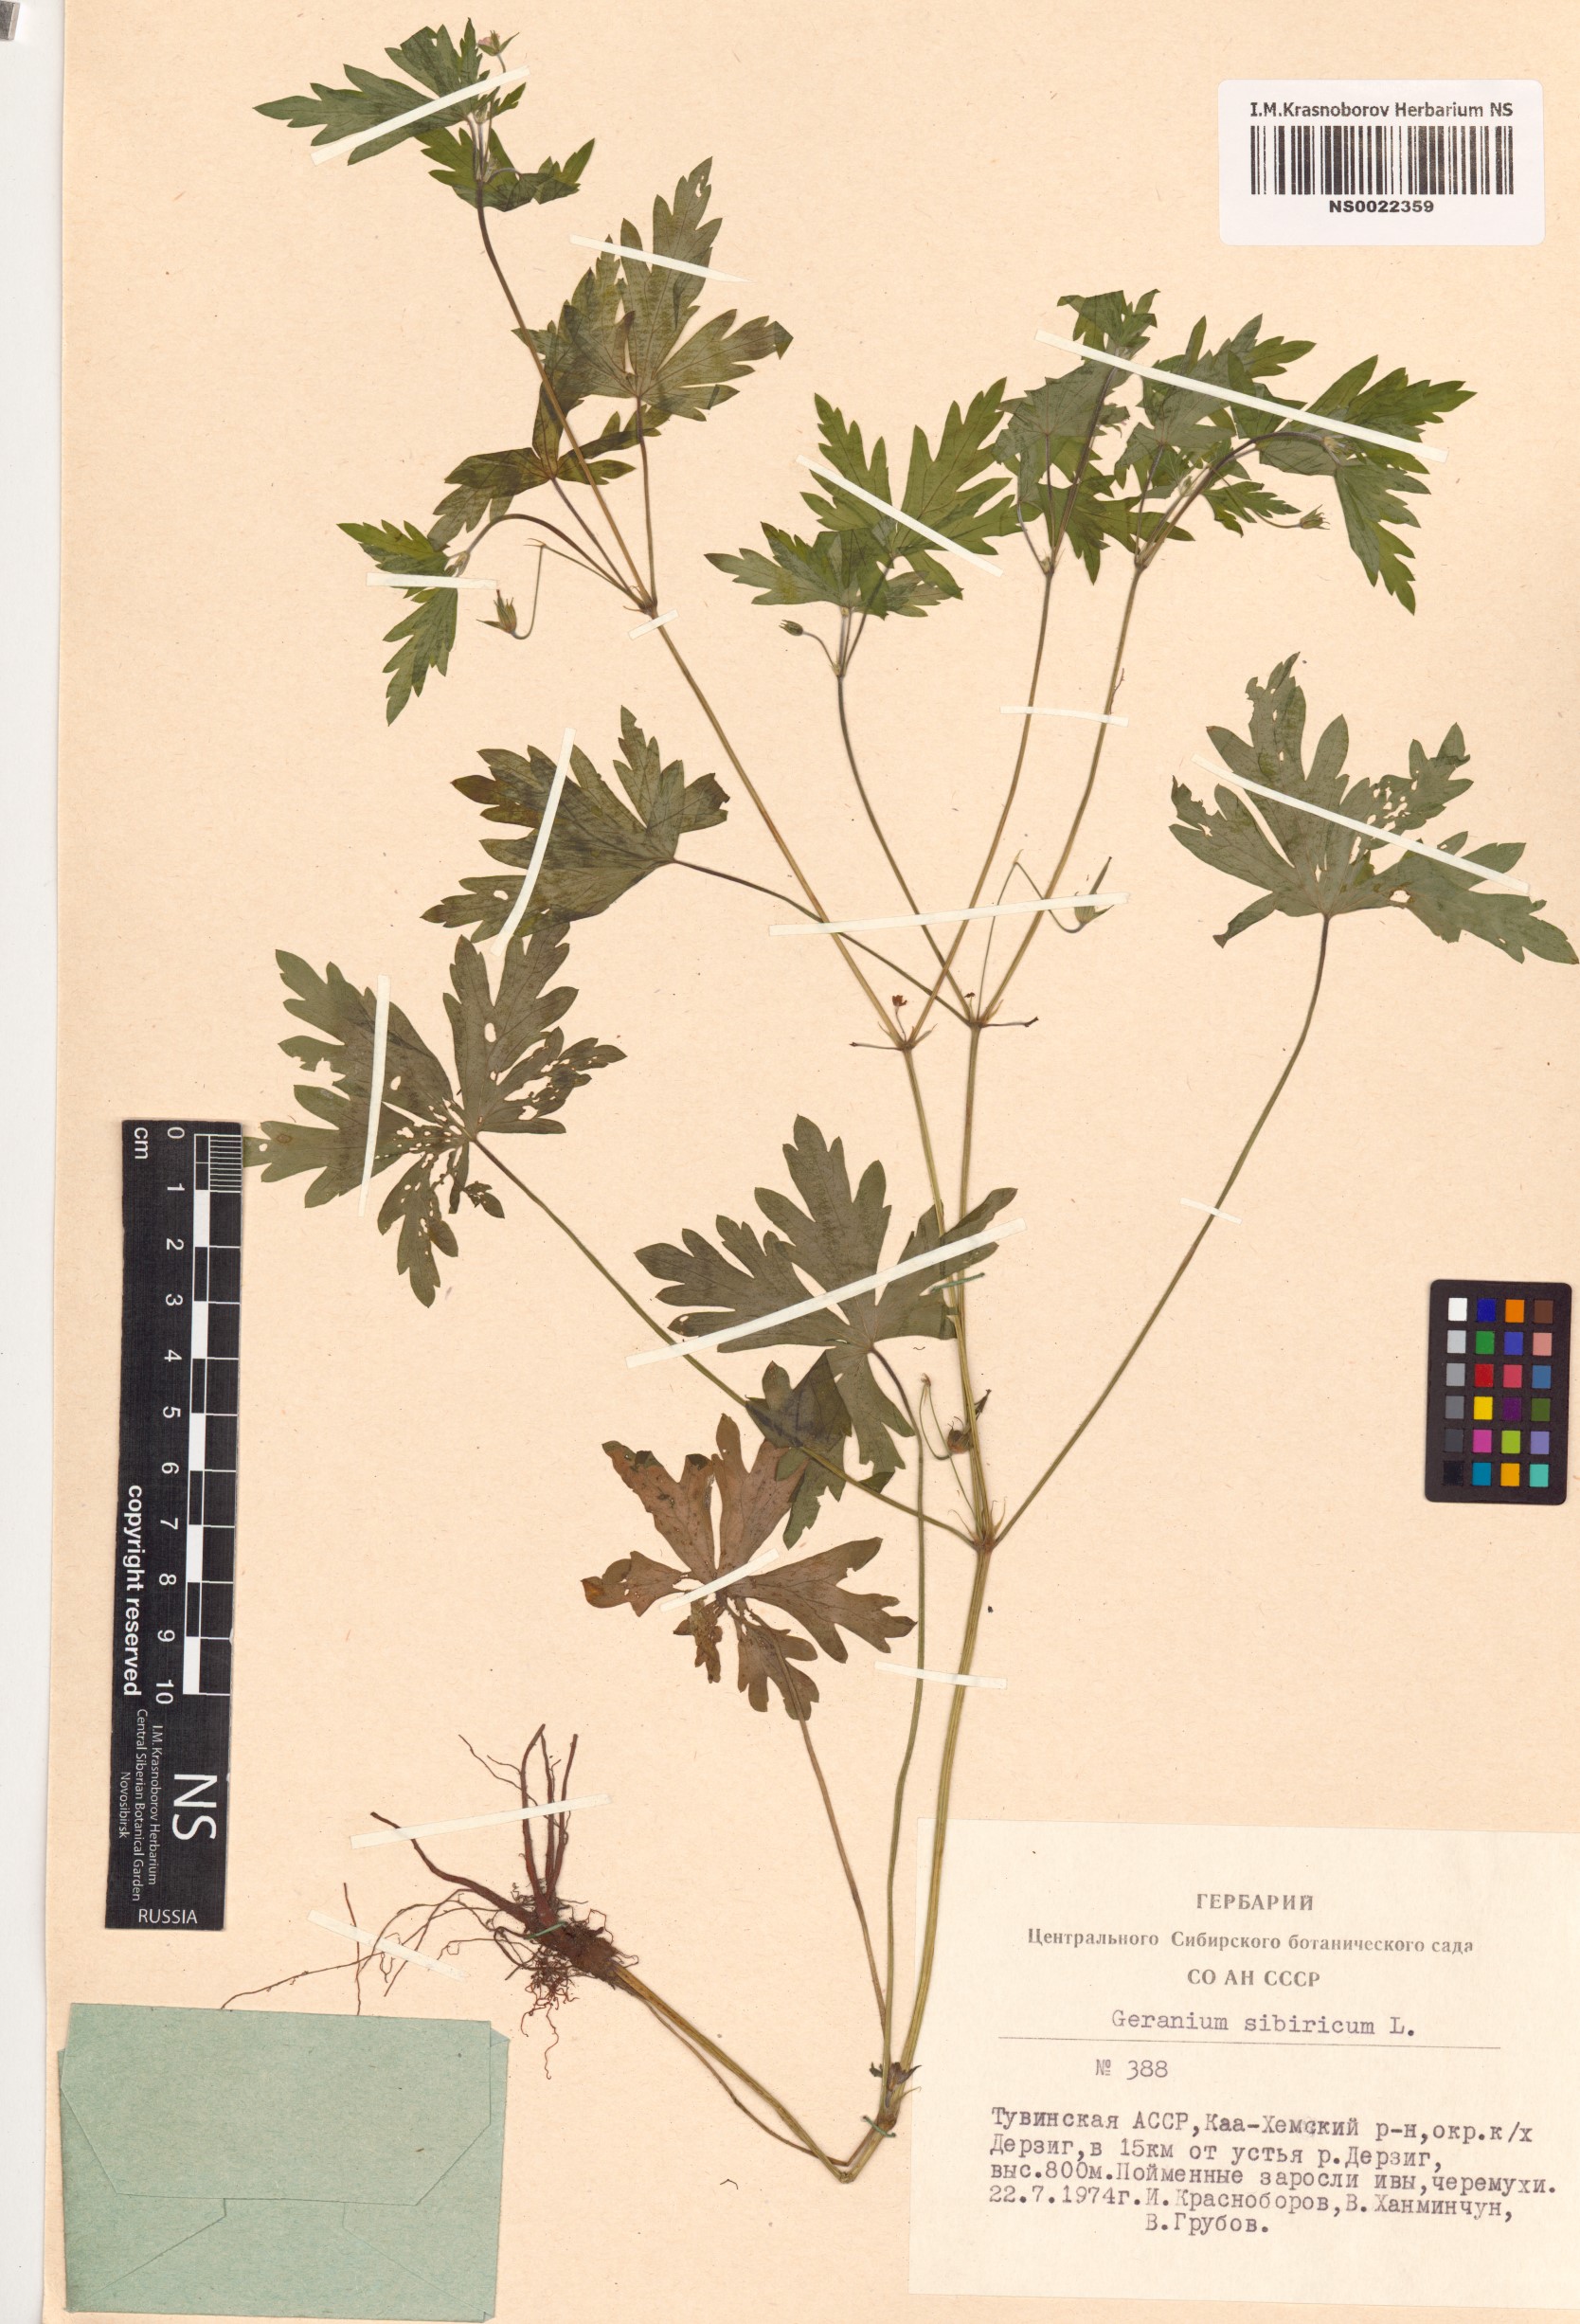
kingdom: Plantae
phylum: Tracheophyta
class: Magnoliopsida
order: Geraniales
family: Geraniaceae
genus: Geranium
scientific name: Geranium sibiricum
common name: Siberian crane's-bill
